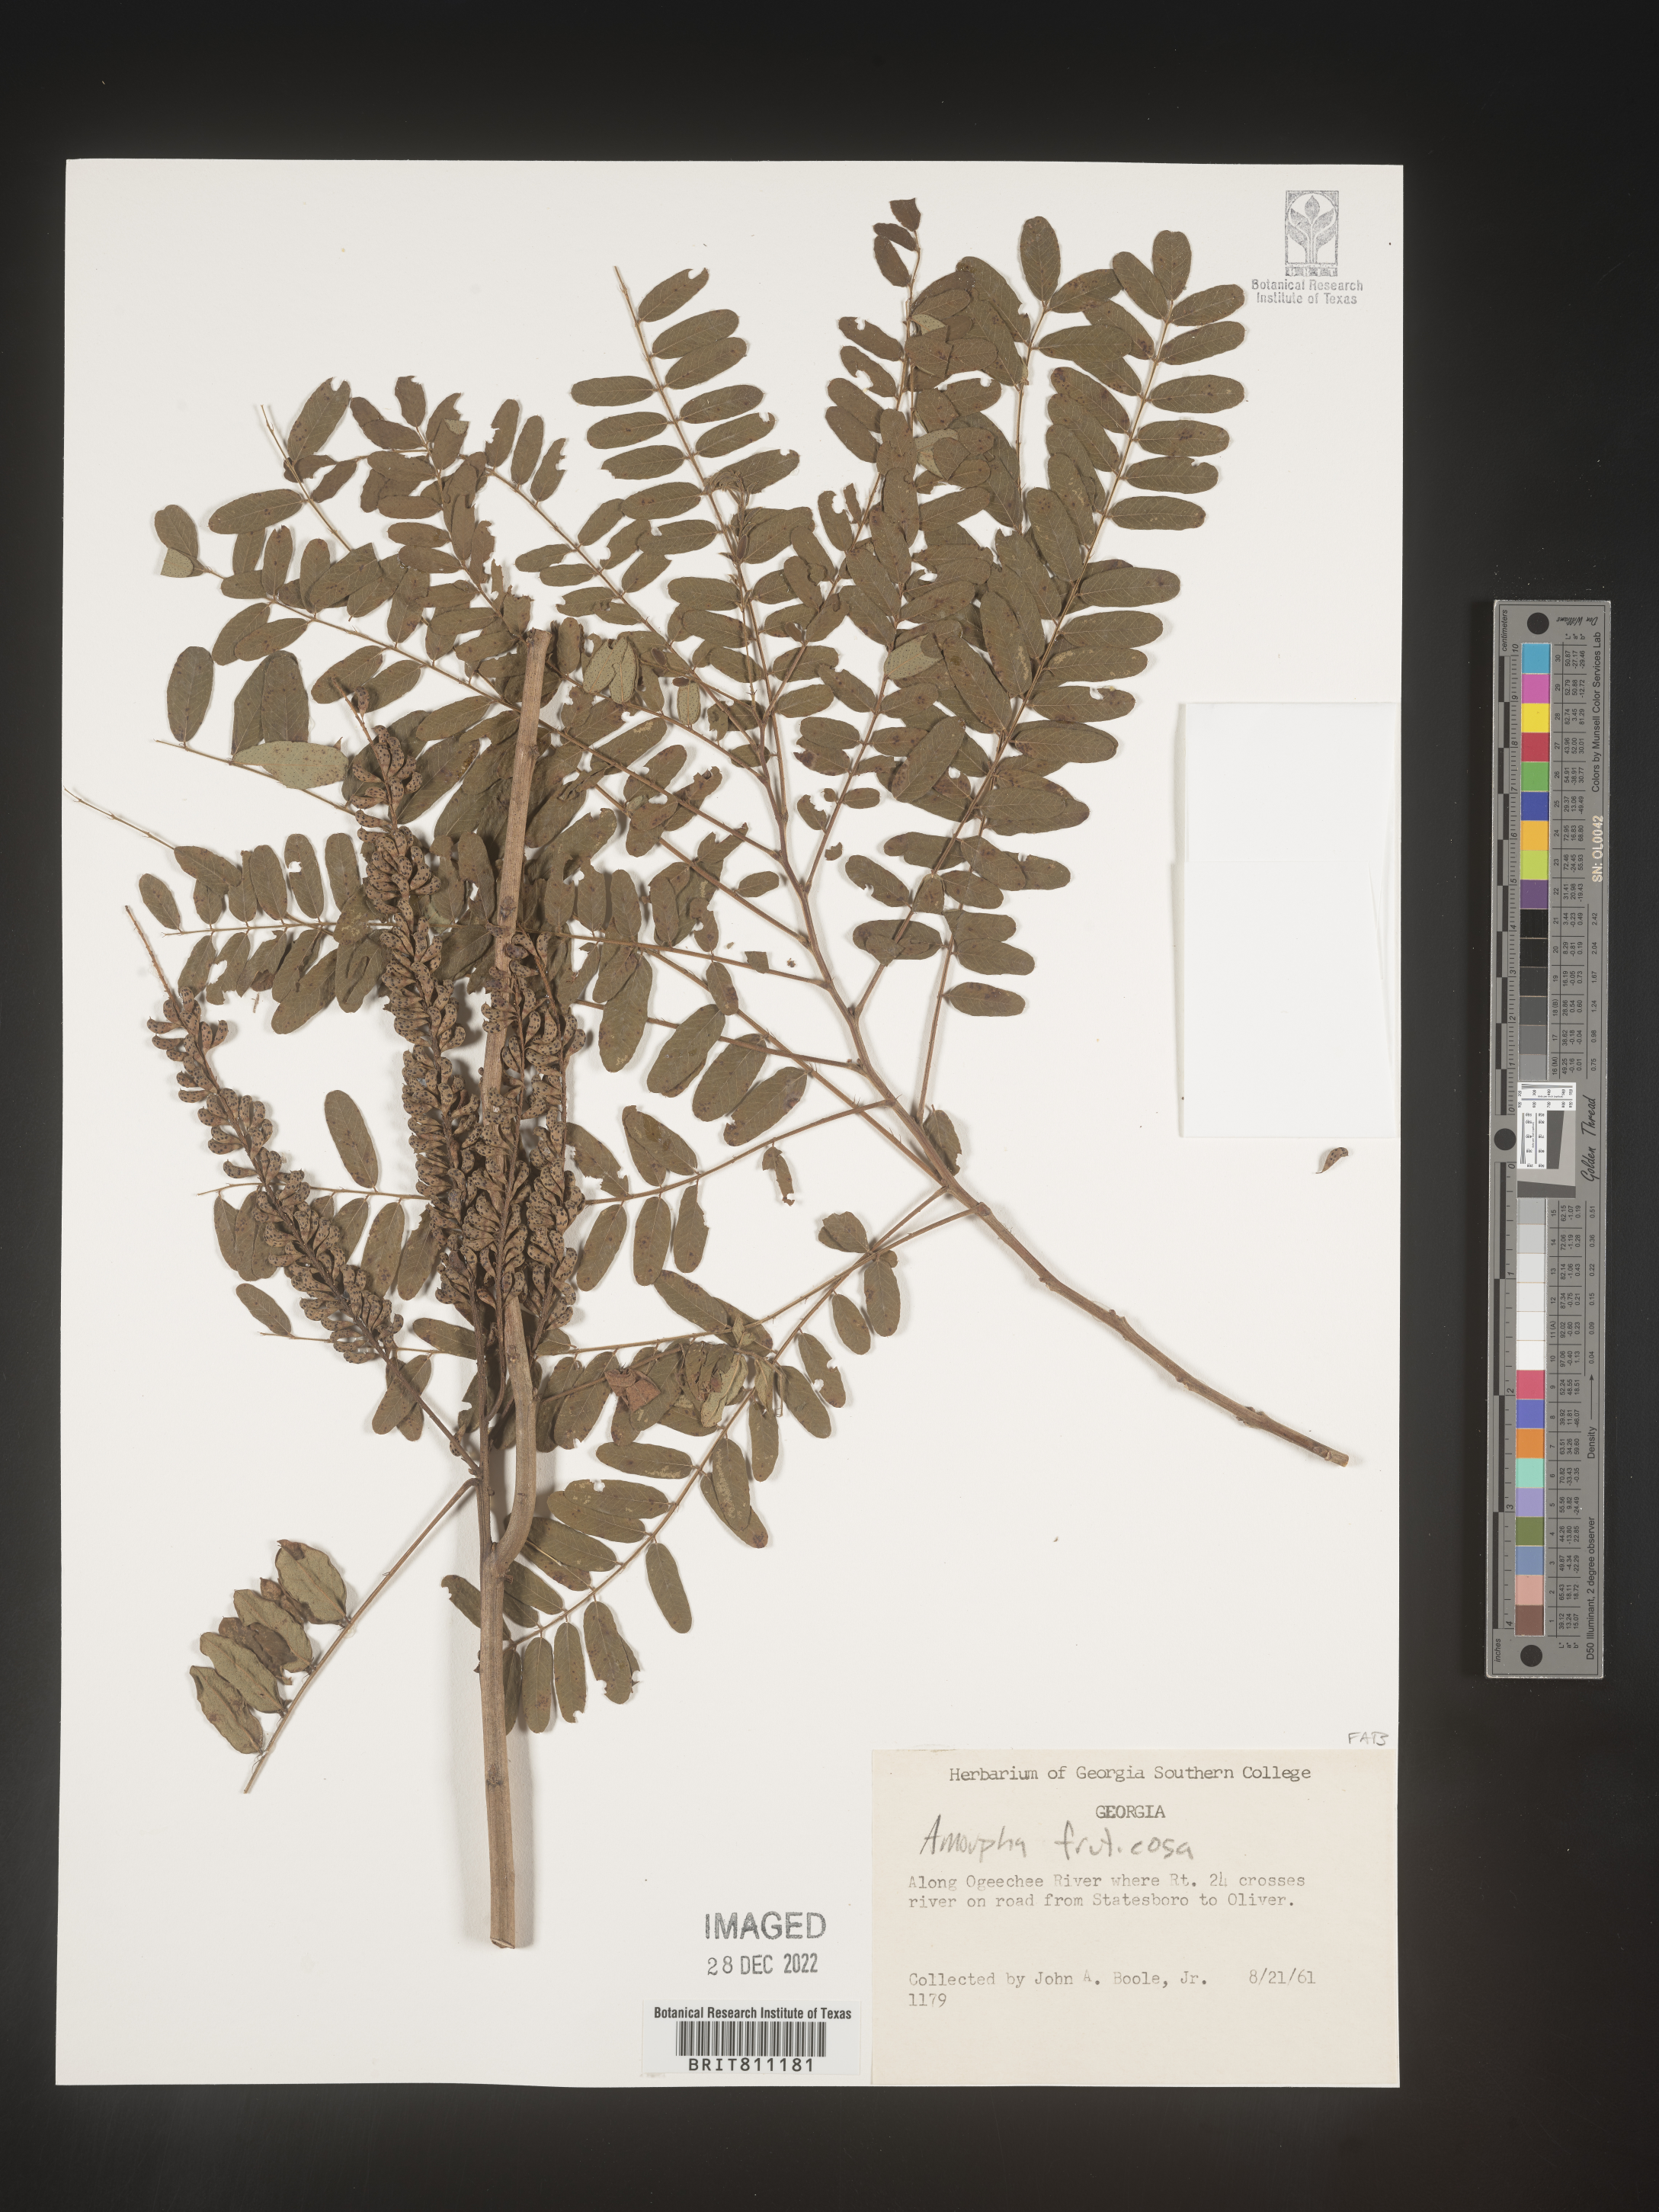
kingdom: Plantae
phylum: Tracheophyta
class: Magnoliopsida
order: Fabales
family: Fabaceae
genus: Amorpha
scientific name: Amorpha fruticosa
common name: False indigo
